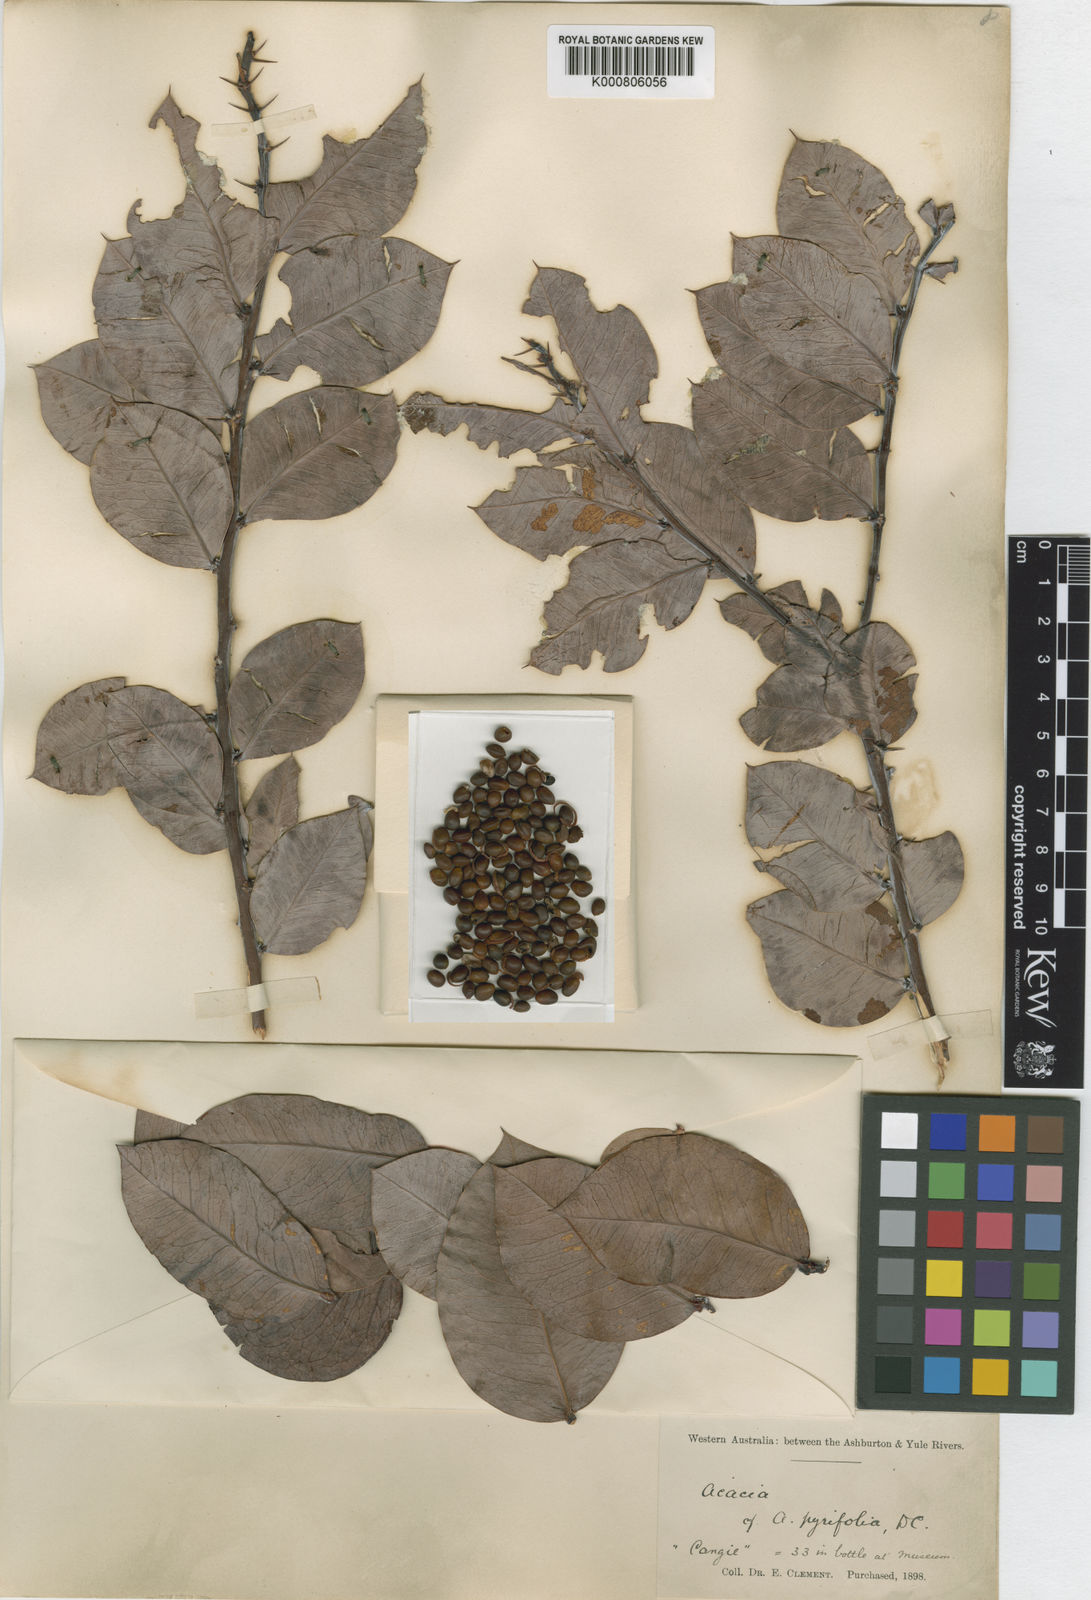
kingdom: Plantae
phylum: Tracheophyta
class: Magnoliopsida
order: Fabales
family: Fabaceae
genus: Acacia
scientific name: Acacia pyrifolia
